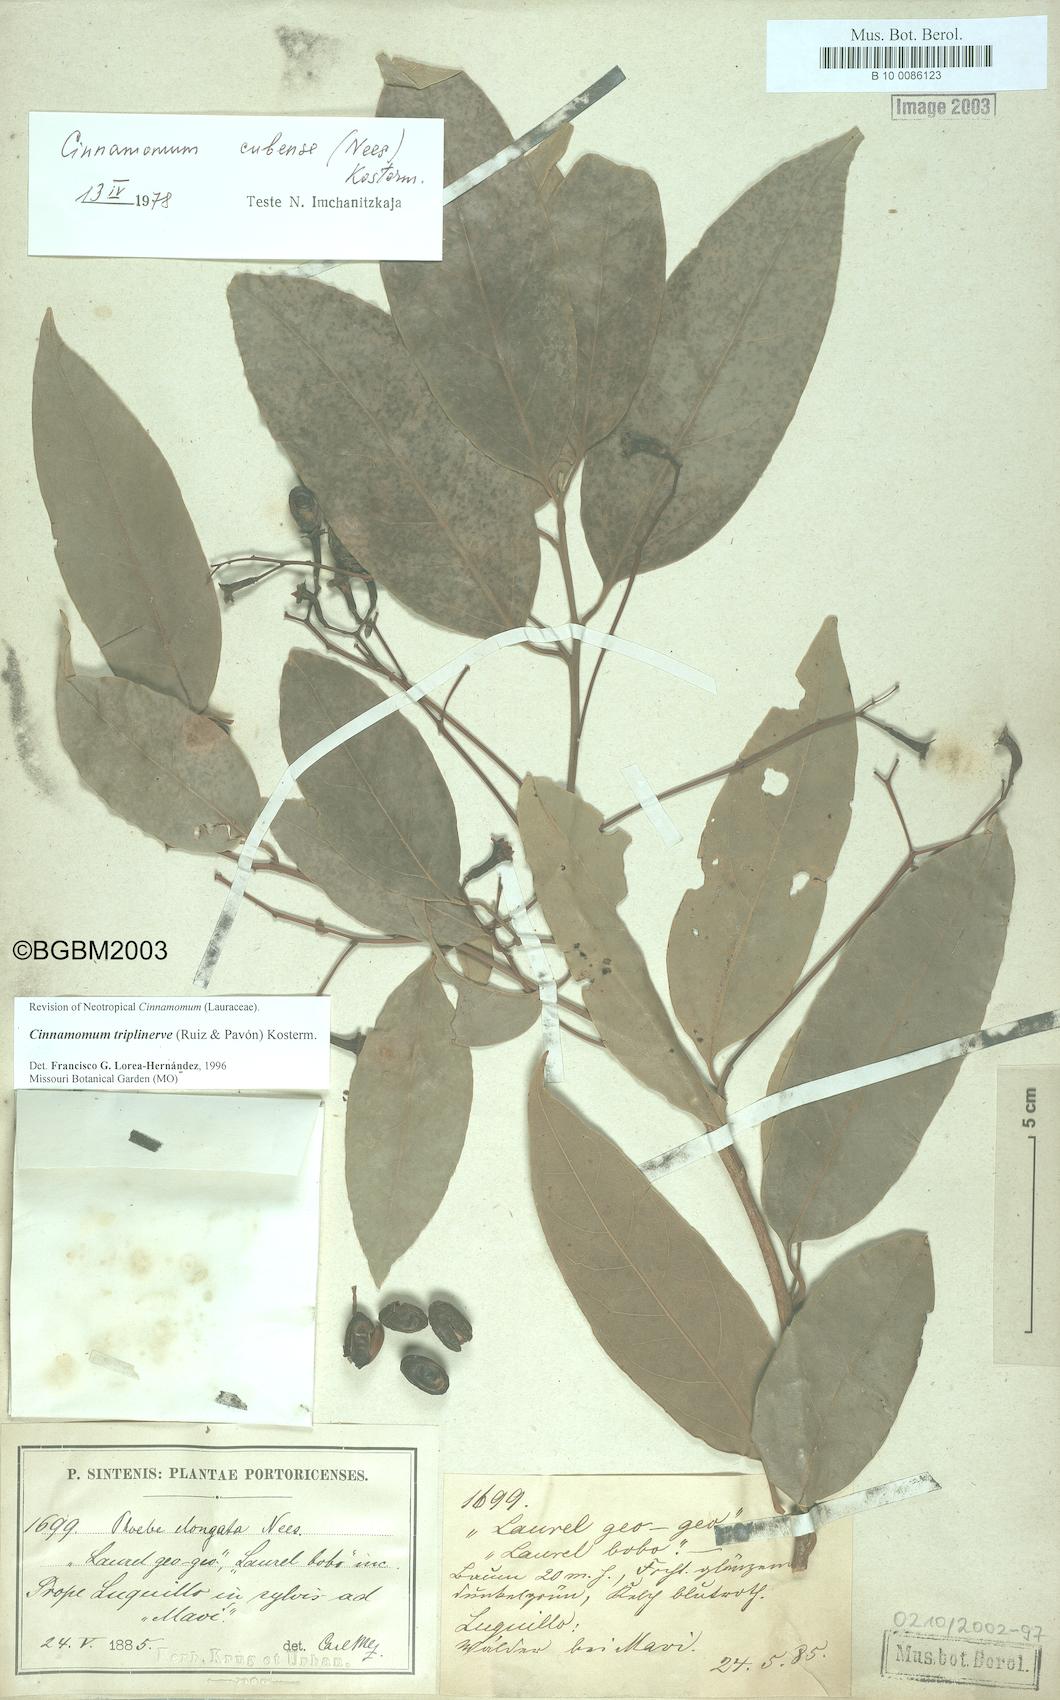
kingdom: Plantae
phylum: Tracheophyta
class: Magnoliopsida
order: Laurales
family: Lauraceae
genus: Aiouea
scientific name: Aiouea montana
